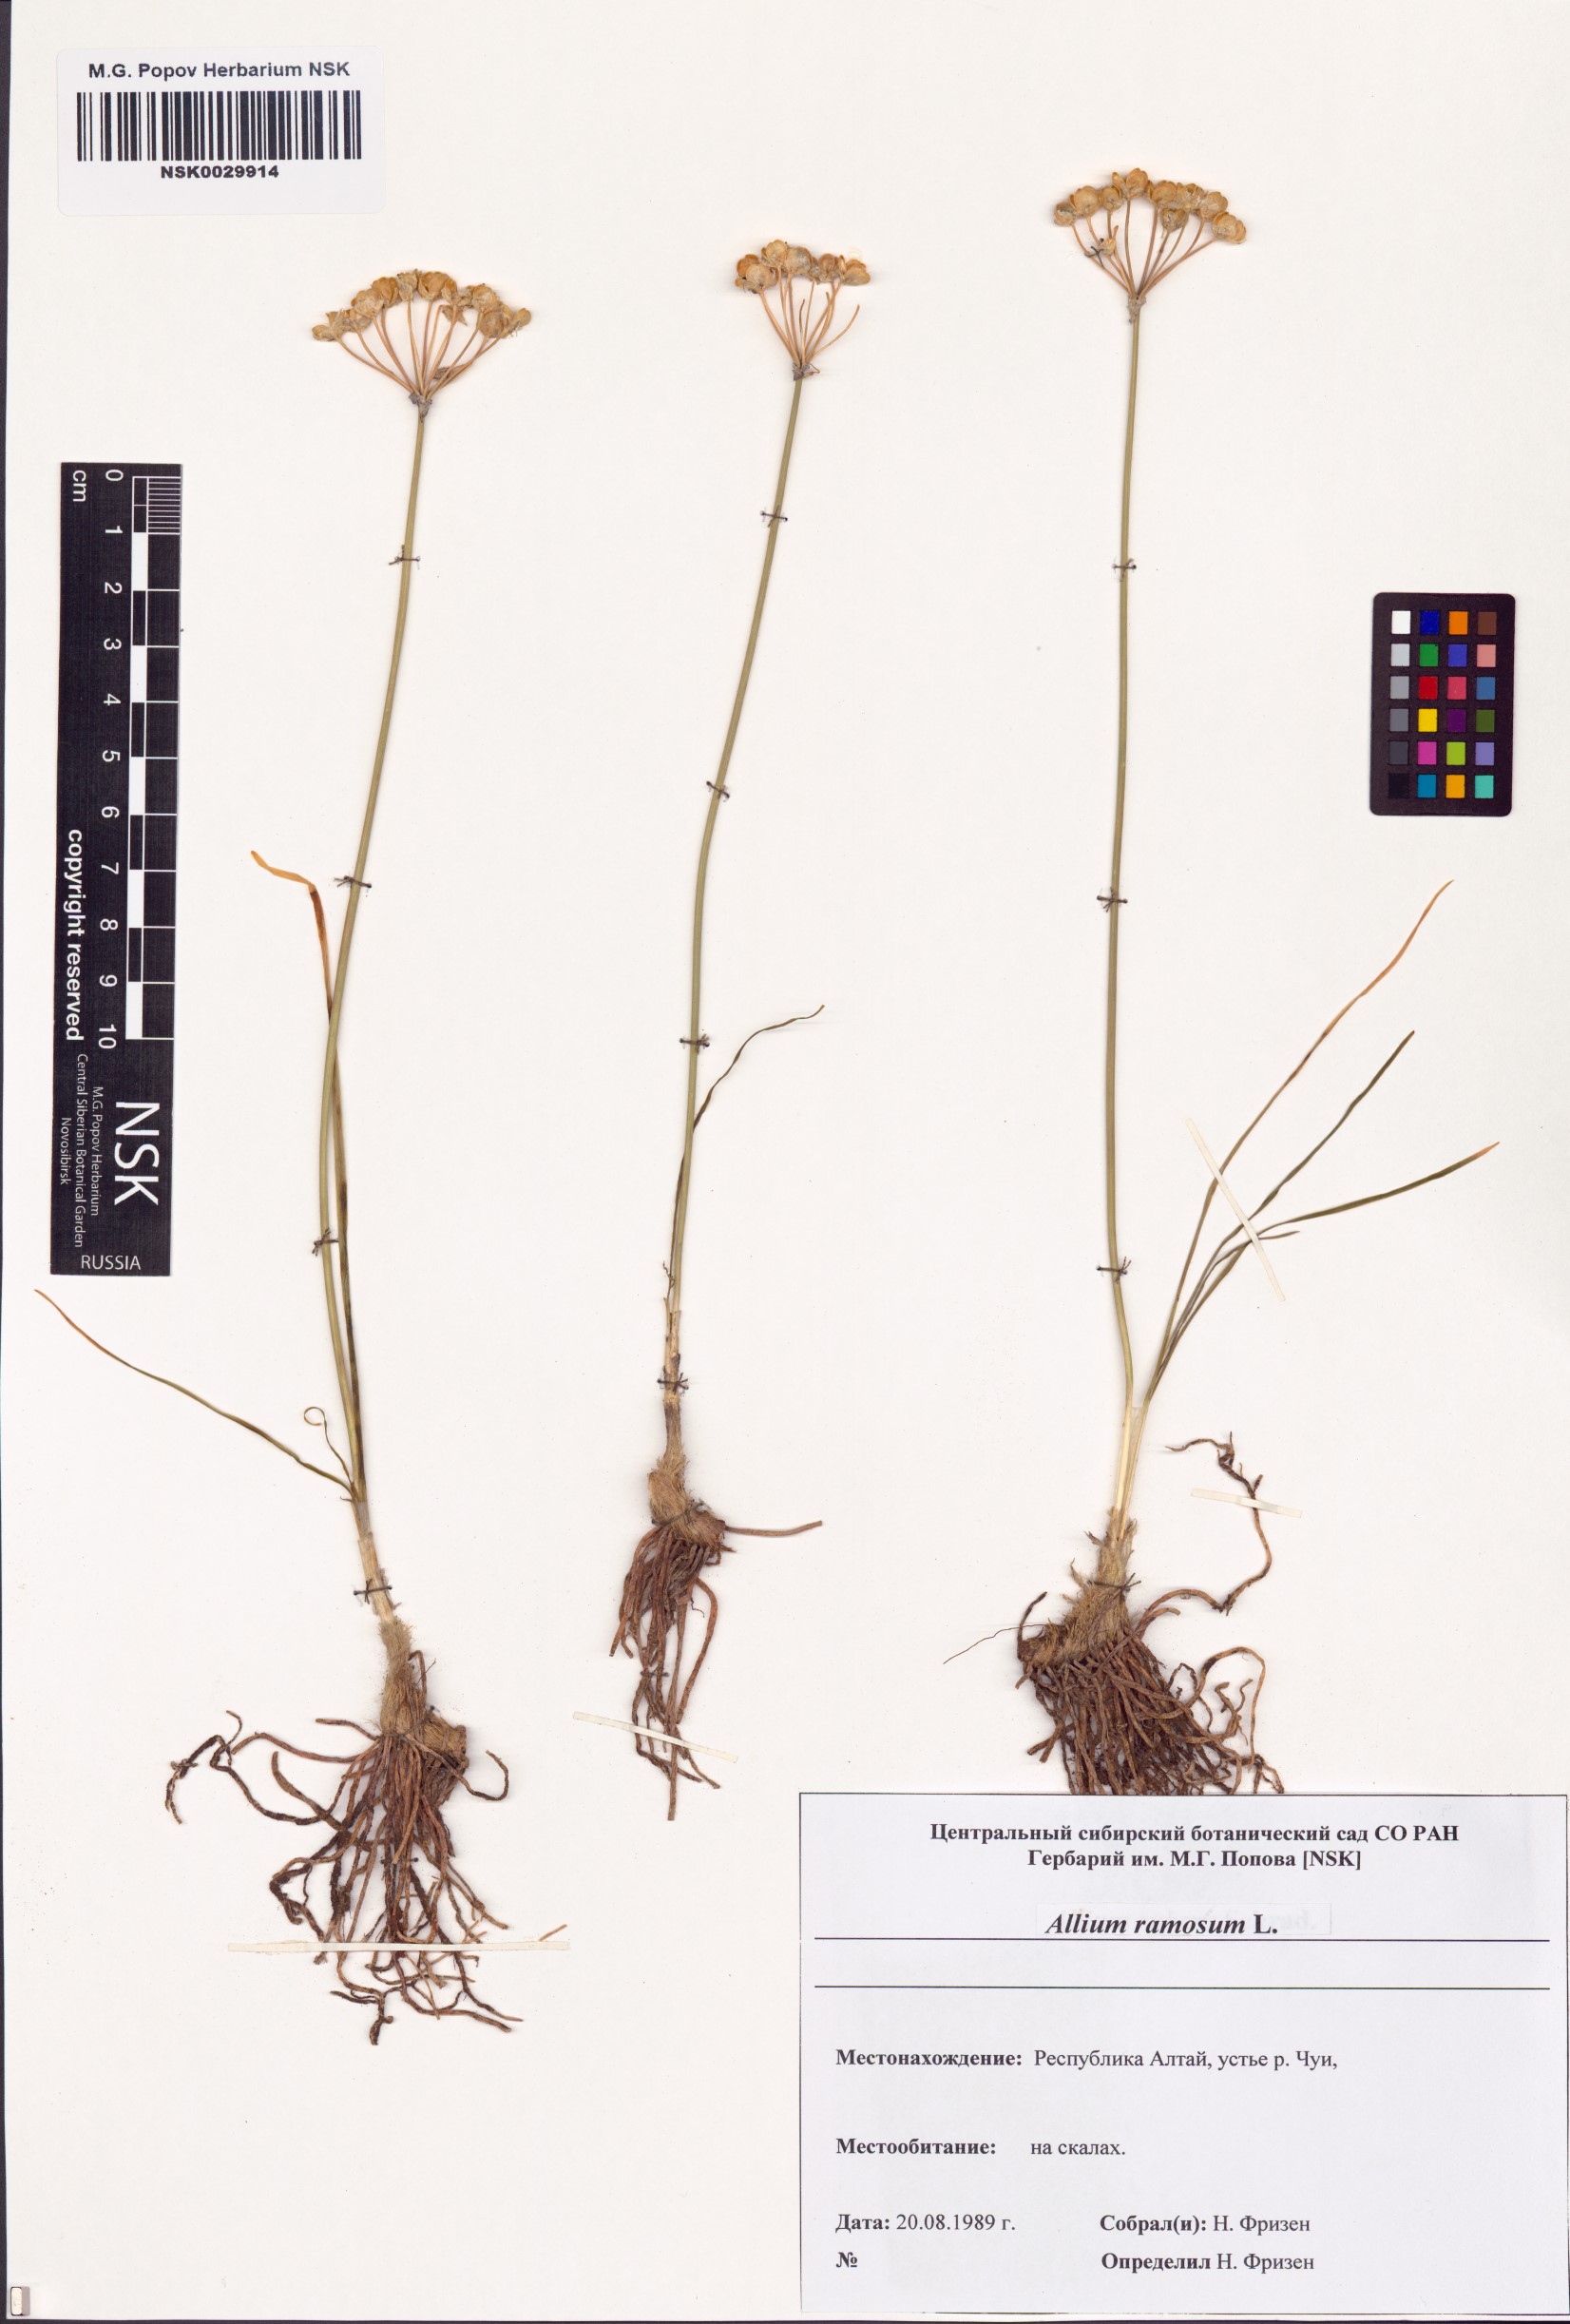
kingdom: Plantae
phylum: Tracheophyta
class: Liliopsida
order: Asparagales
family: Amaryllidaceae
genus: Allium
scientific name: Allium ramosum
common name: Fragrant garlic
